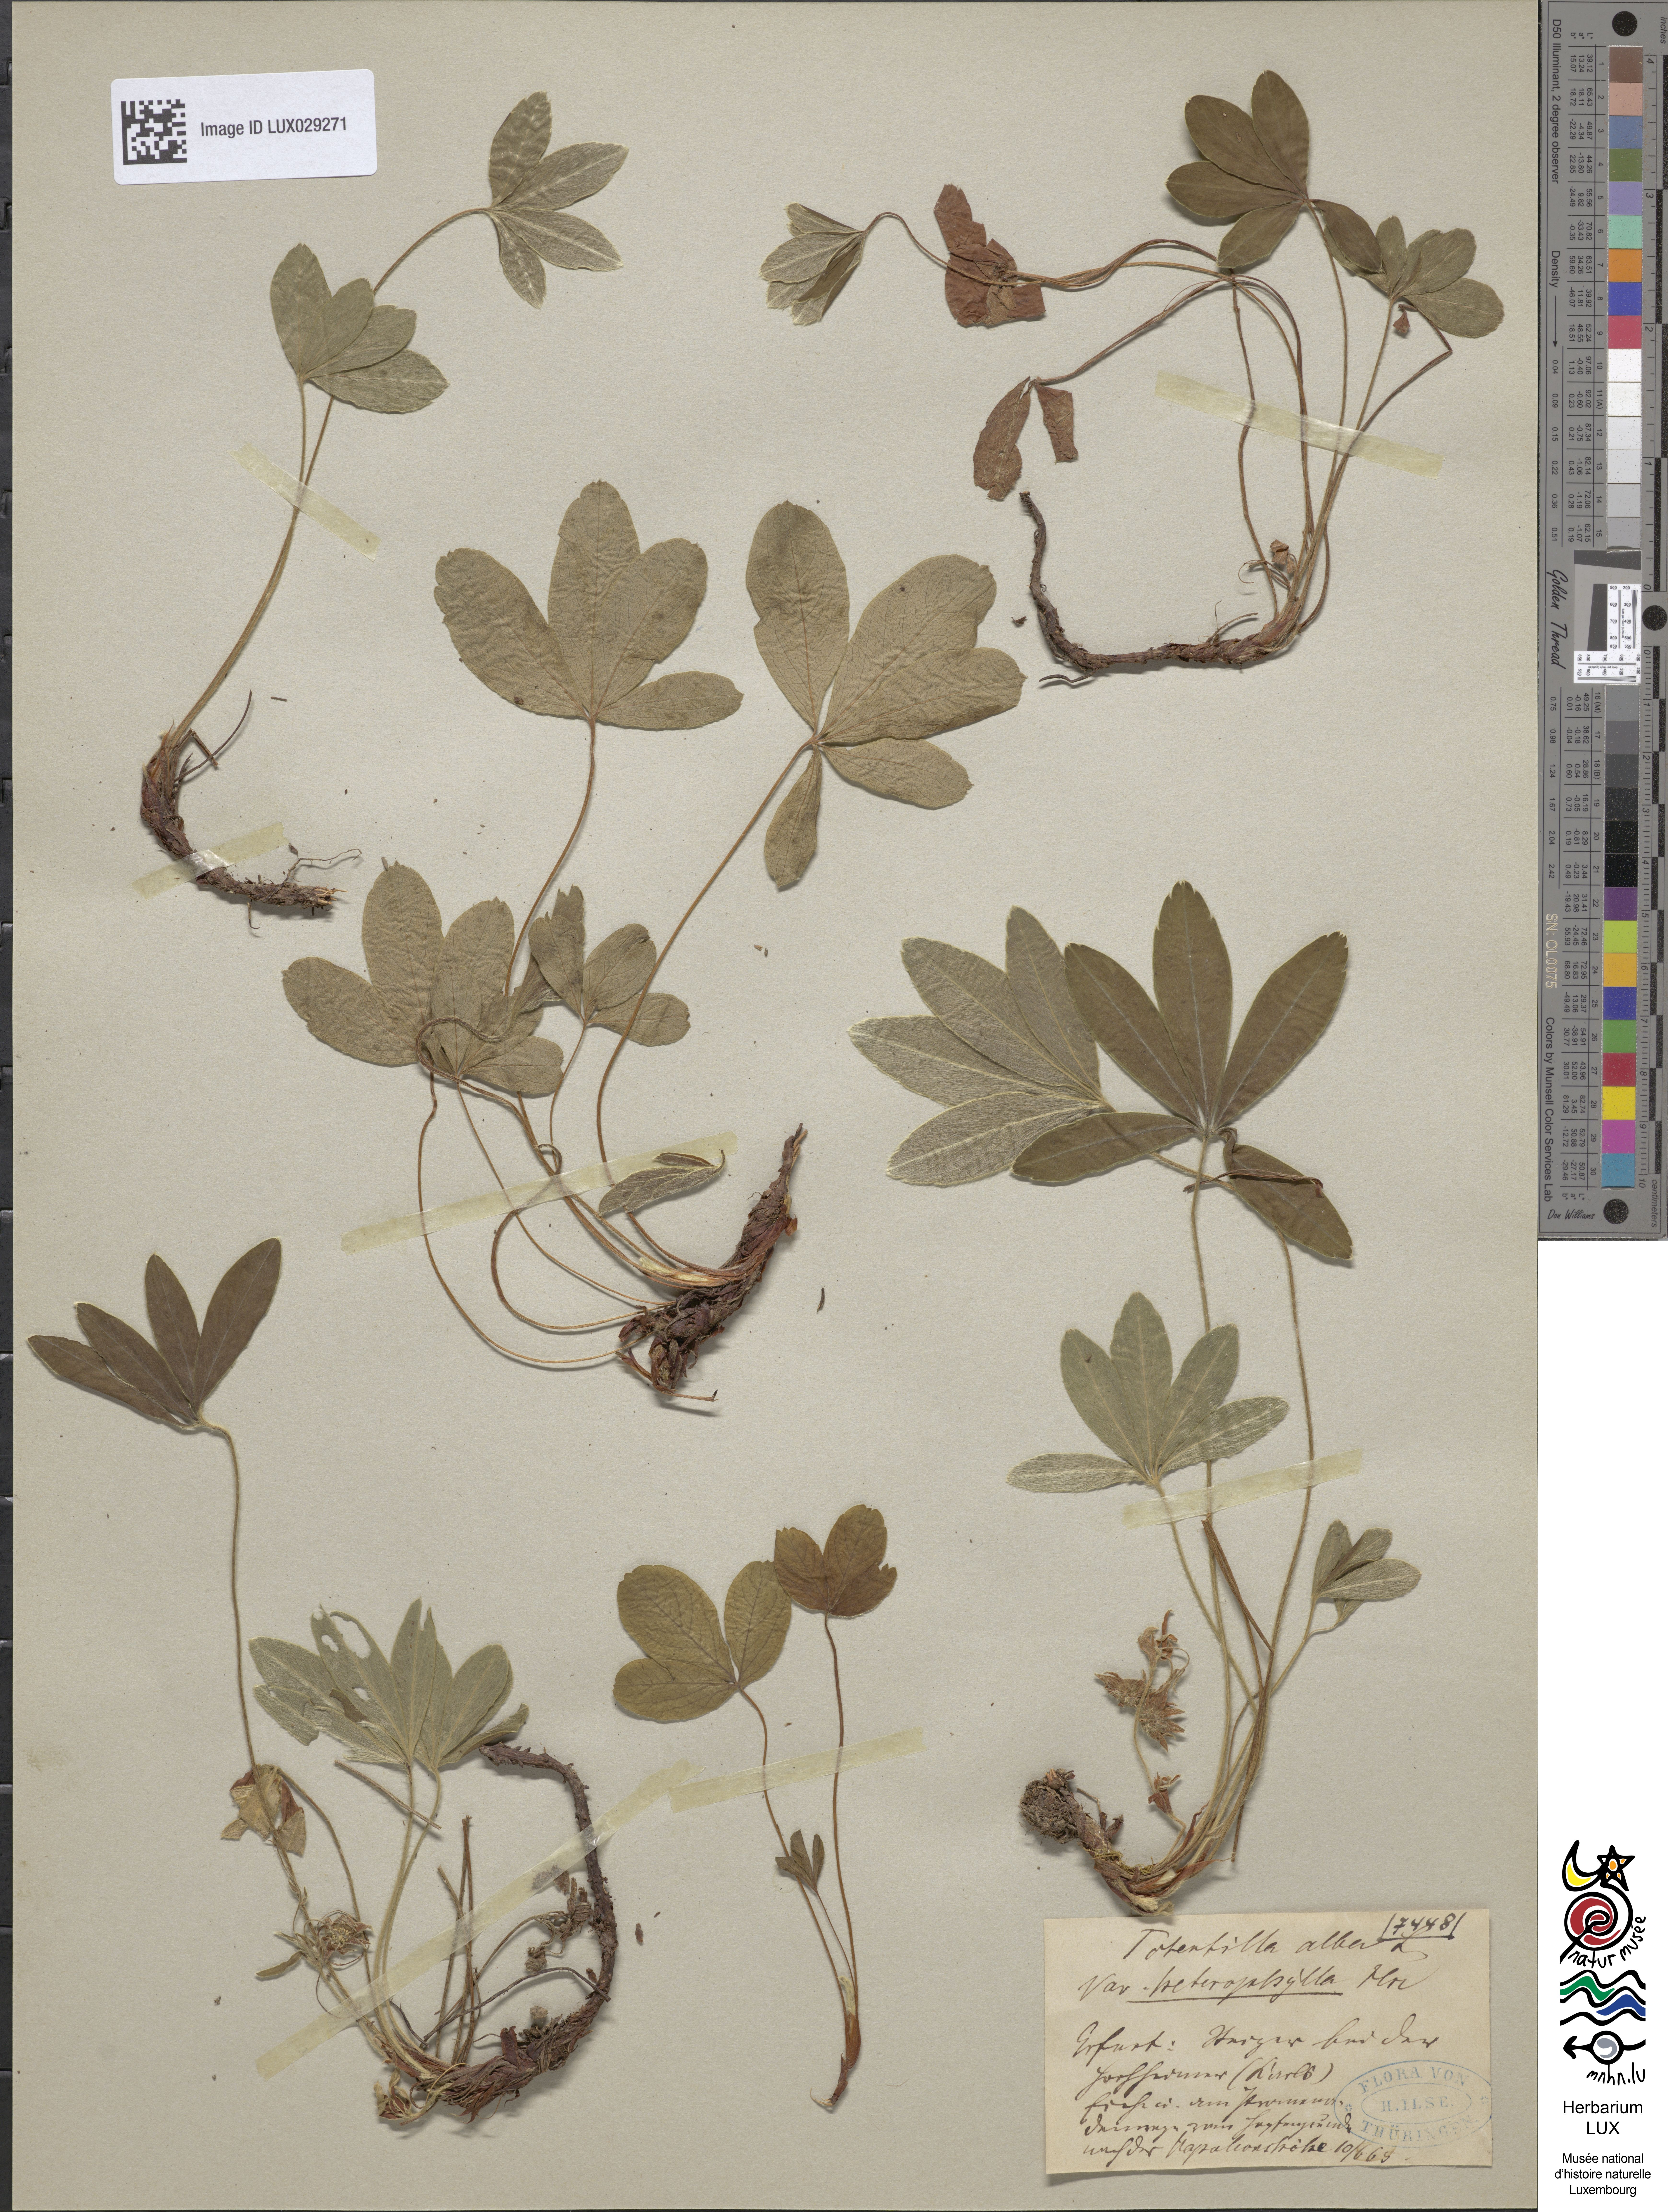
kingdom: Plantae
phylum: Tracheophyta
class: Magnoliopsida
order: Rosales
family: Rosaceae
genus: Potentilla
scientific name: Potentilla alba
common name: White cinquefoil
